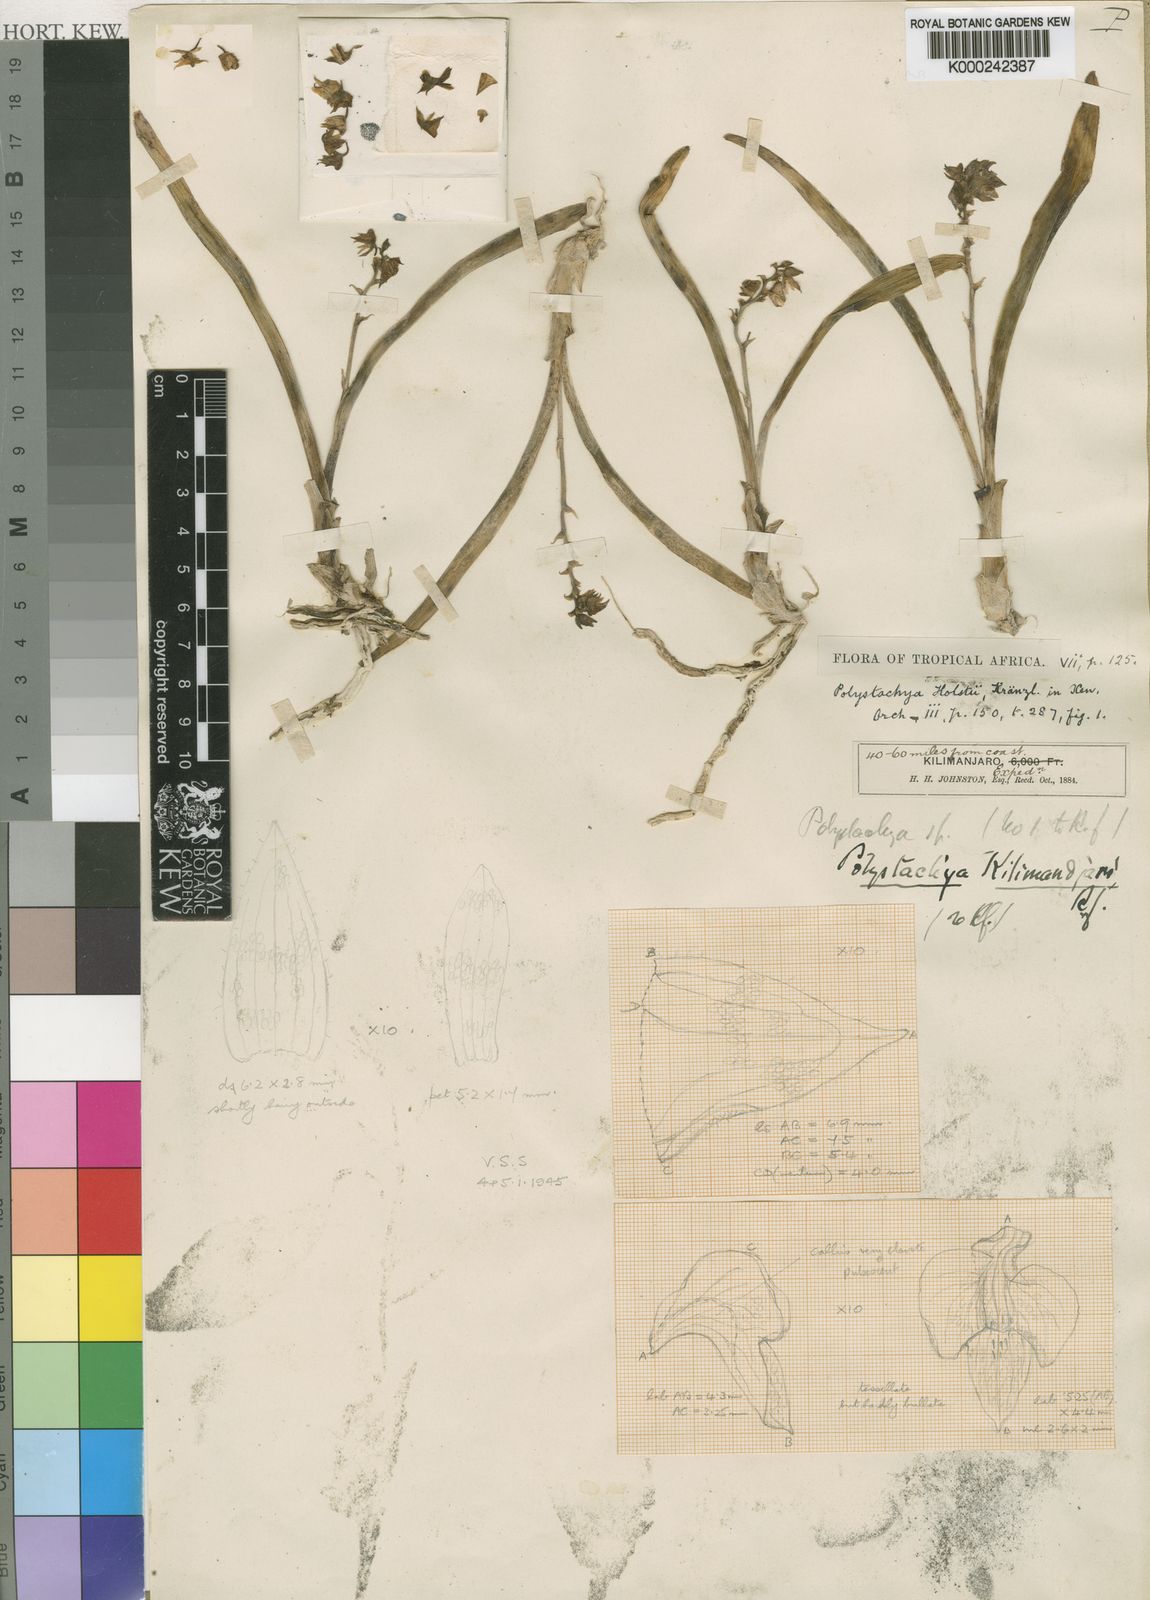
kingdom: Plantae
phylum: Tracheophyta
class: Liliopsida
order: Asparagales
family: Orchidaceae
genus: Polystachya
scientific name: Polystachya fischeri
